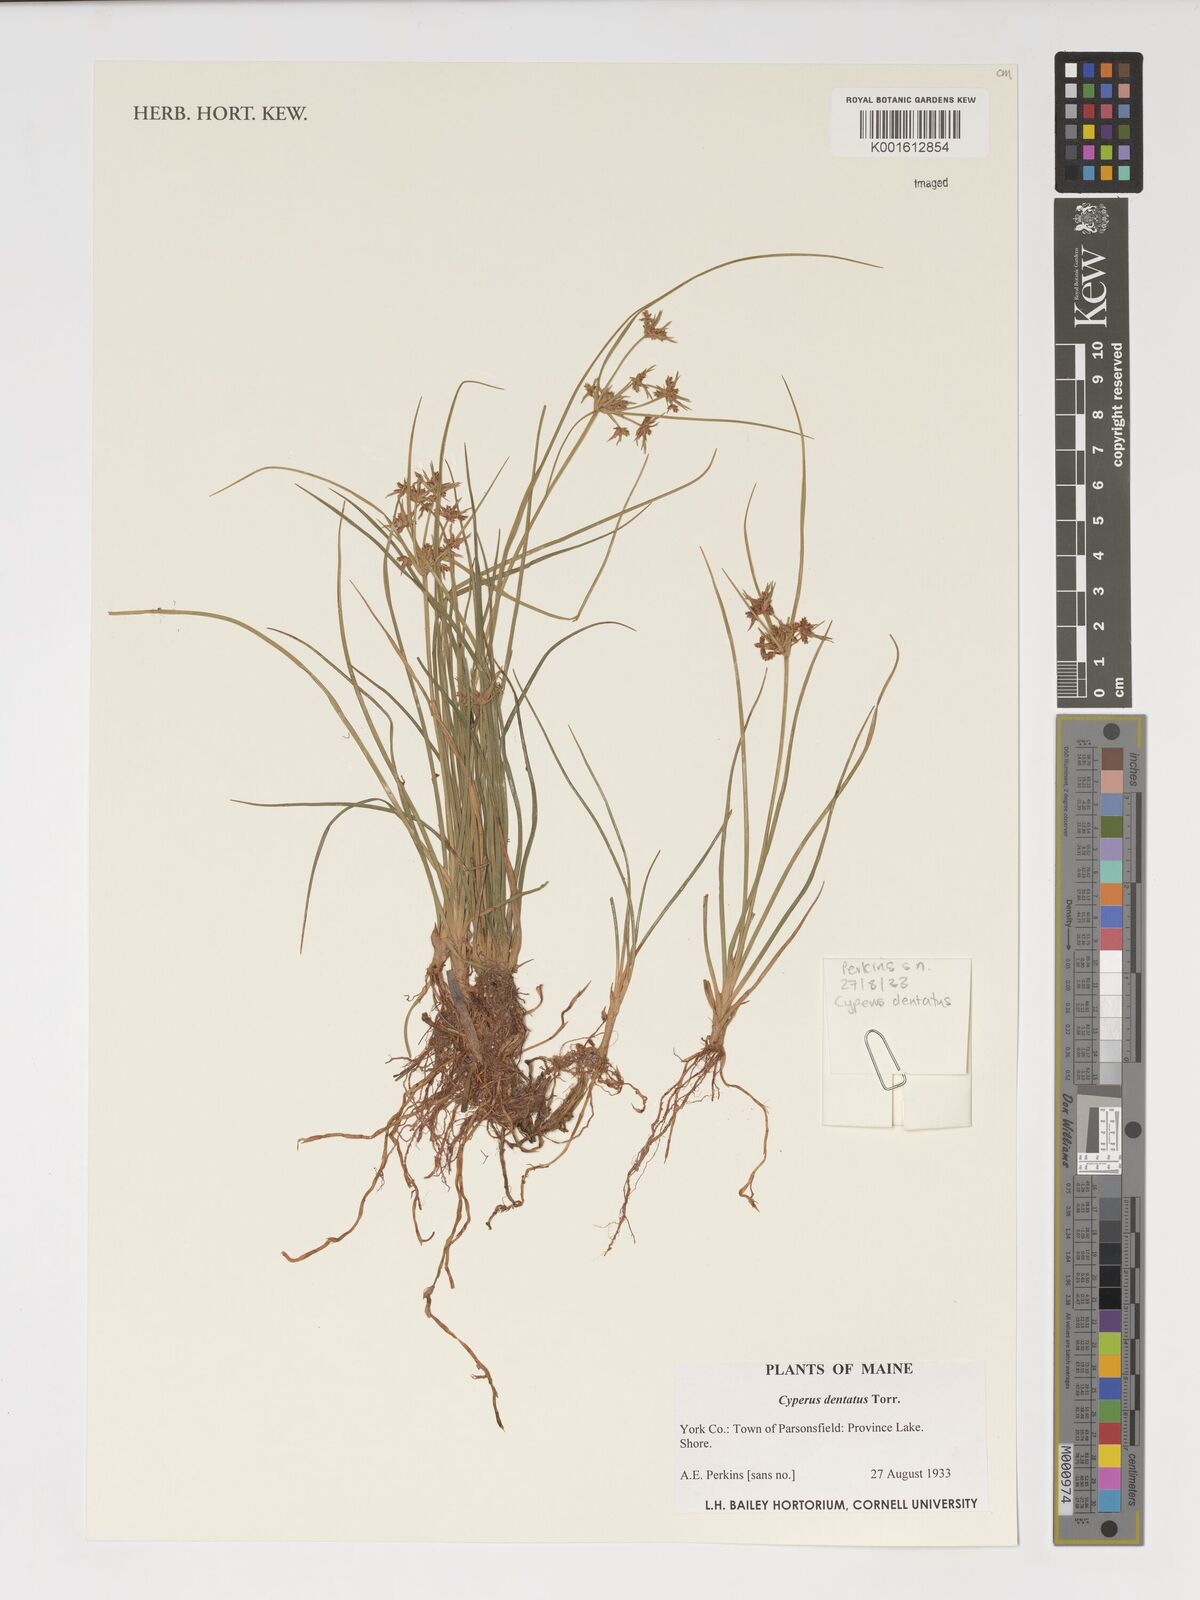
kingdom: Plantae
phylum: Tracheophyta
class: Liliopsida
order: Poales
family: Cyperaceae
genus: Cyperus
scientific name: Cyperus dentatus
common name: Dentate umbrella sedge
